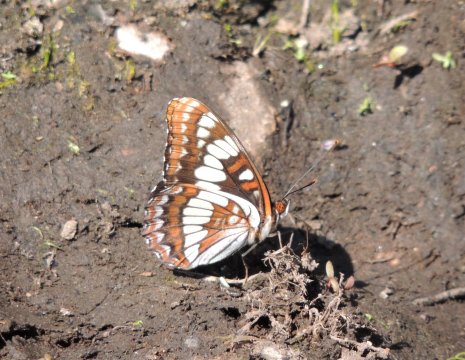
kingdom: Animalia
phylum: Arthropoda
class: Insecta
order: Lepidoptera
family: Nymphalidae
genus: Limenitis
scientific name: Limenitis lorquini
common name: Lorquin's Admiral
